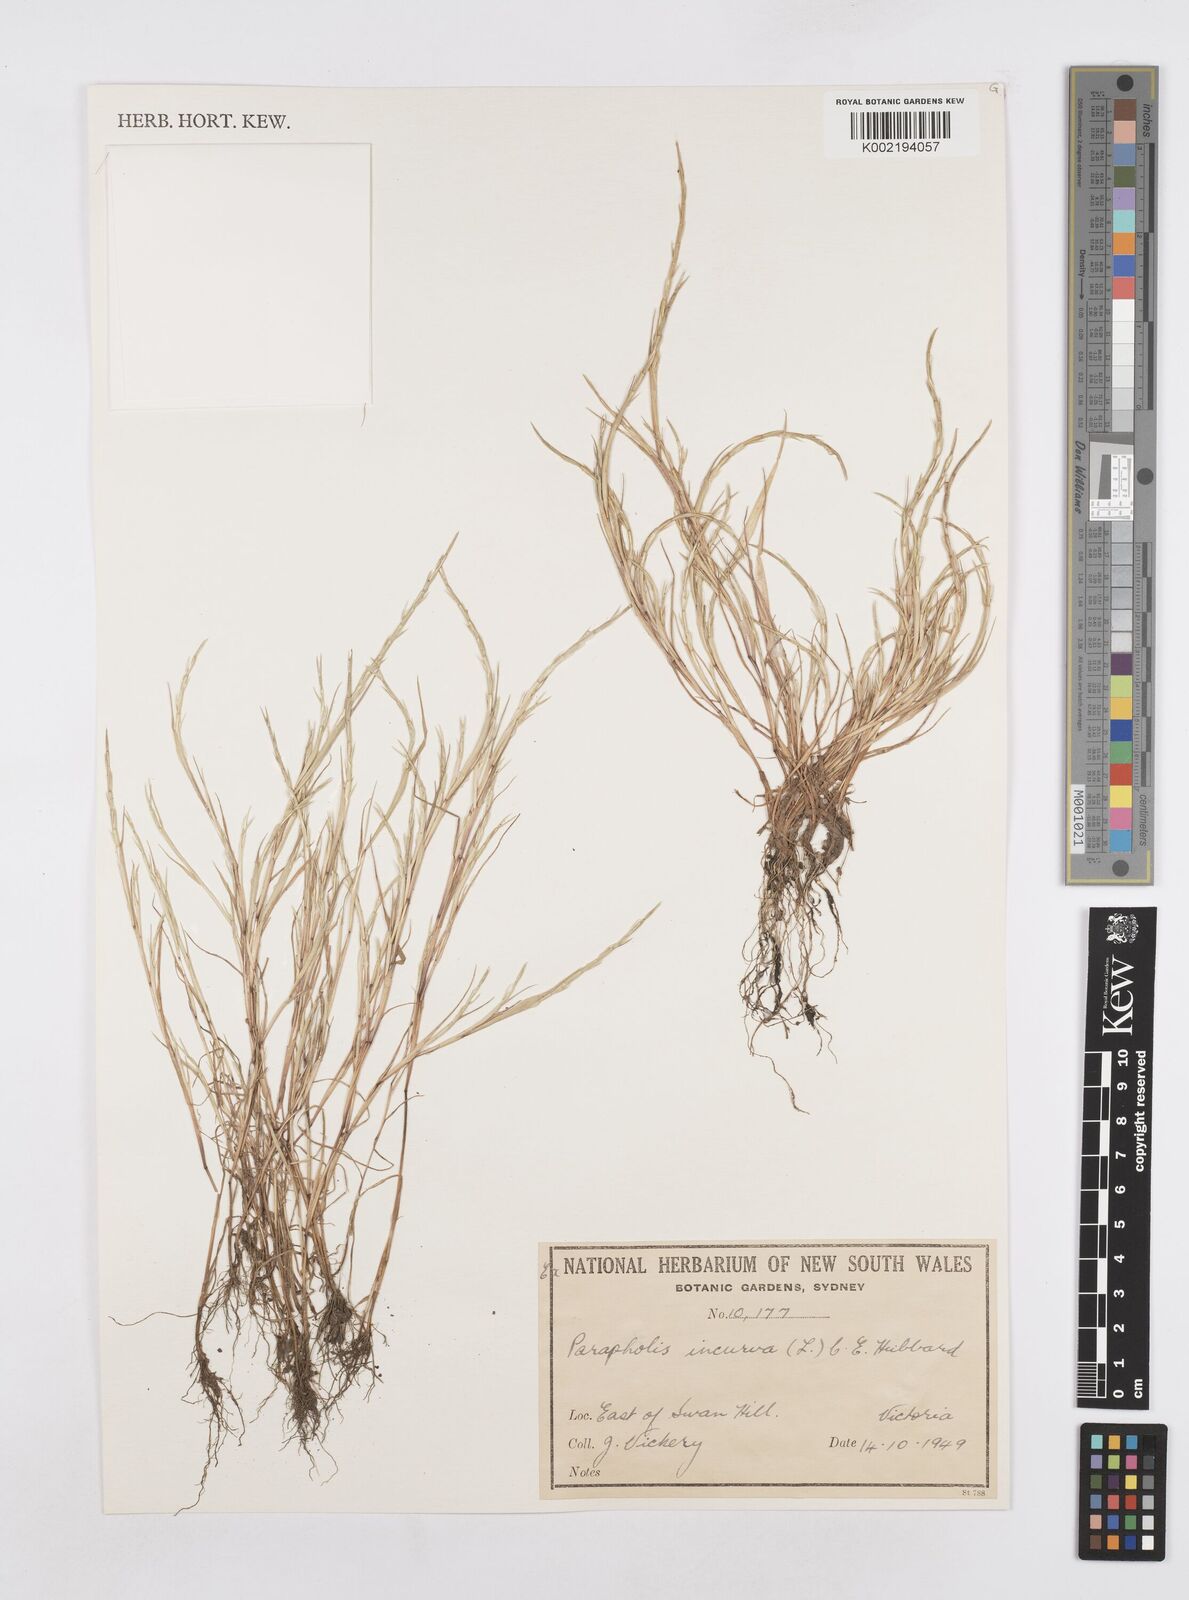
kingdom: Plantae
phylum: Tracheophyta
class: Liliopsida
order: Poales
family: Poaceae
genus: Parapholis
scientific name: Parapholis incurva
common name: Curved sicklegrass
